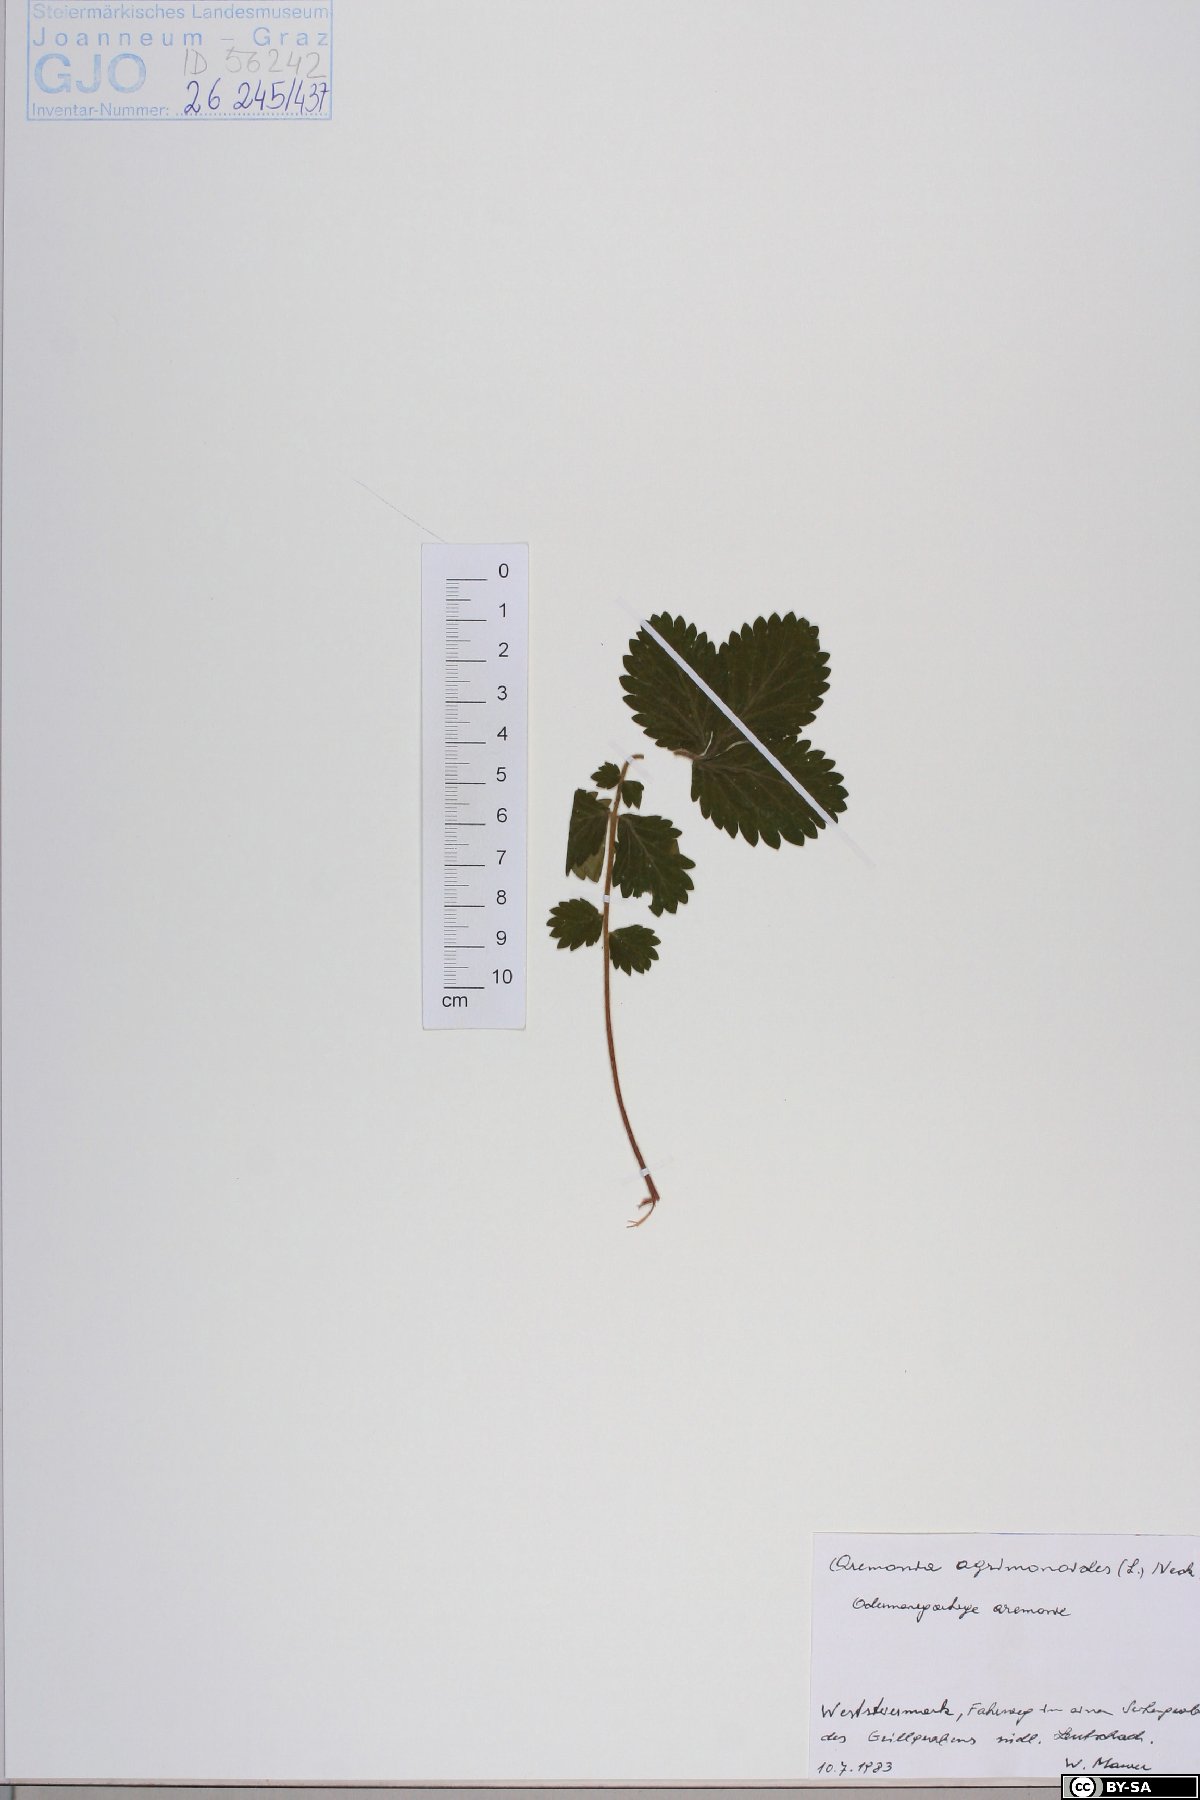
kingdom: Plantae
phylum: Tracheophyta
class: Magnoliopsida
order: Rosales
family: Rosaceae
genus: Aremonia
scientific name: Aremonia agrimonoides
